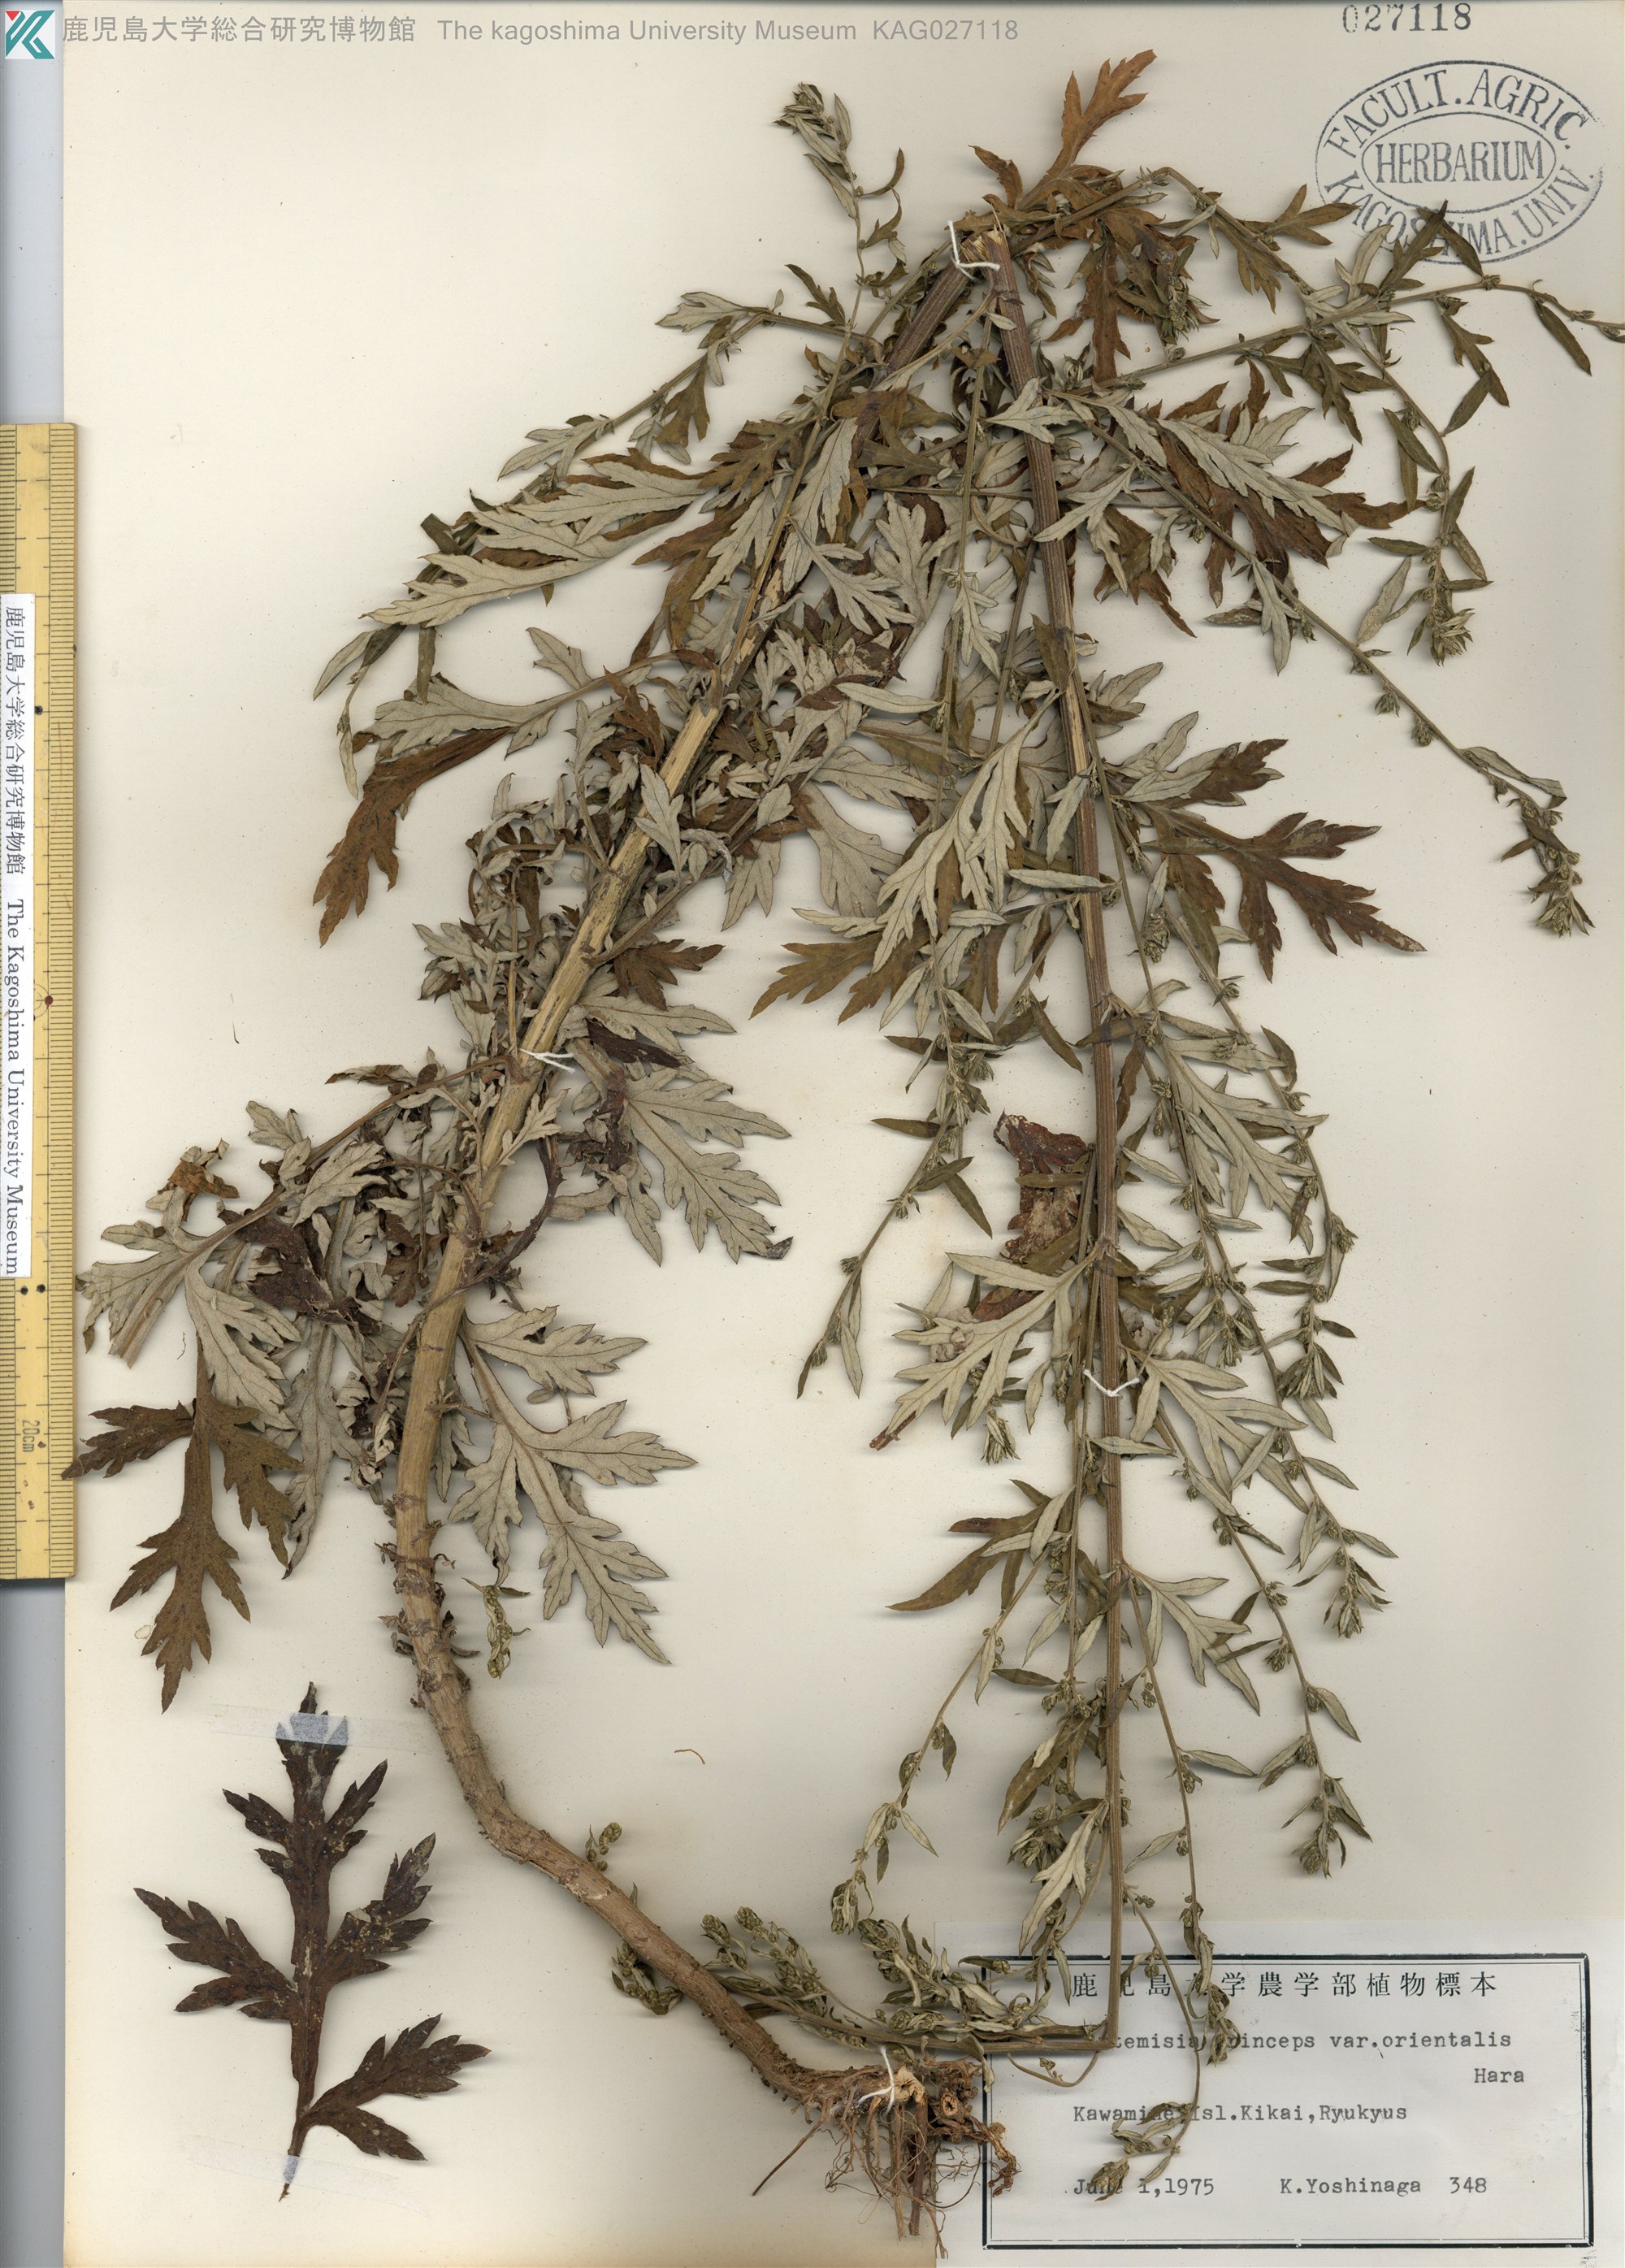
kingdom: Plantae
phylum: Tracheophyta
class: Magnoliopsida
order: Asterales
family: Asteraceae
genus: Artemisia
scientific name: Artemisia indica
